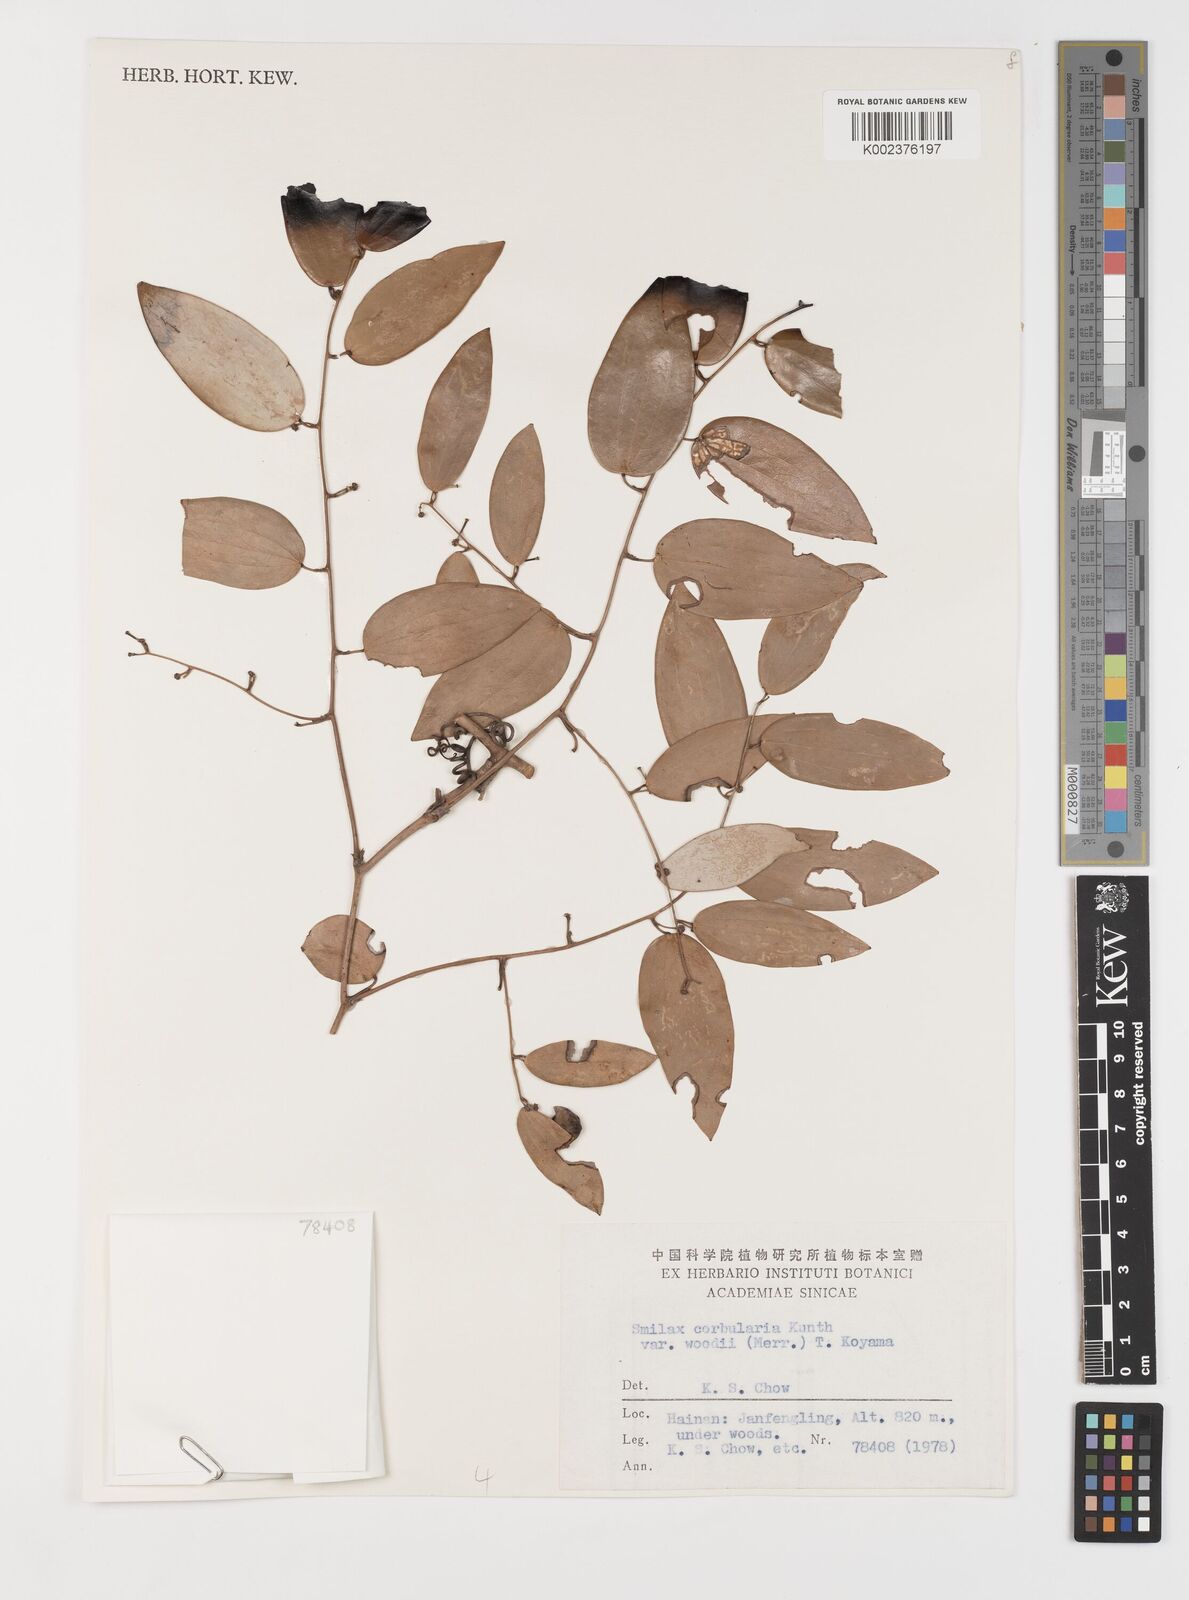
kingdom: Plantae
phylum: Tracheophyta
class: Liliopsida
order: Liliales
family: Smilacaceae
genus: Smilax
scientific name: Smilax corbularia
